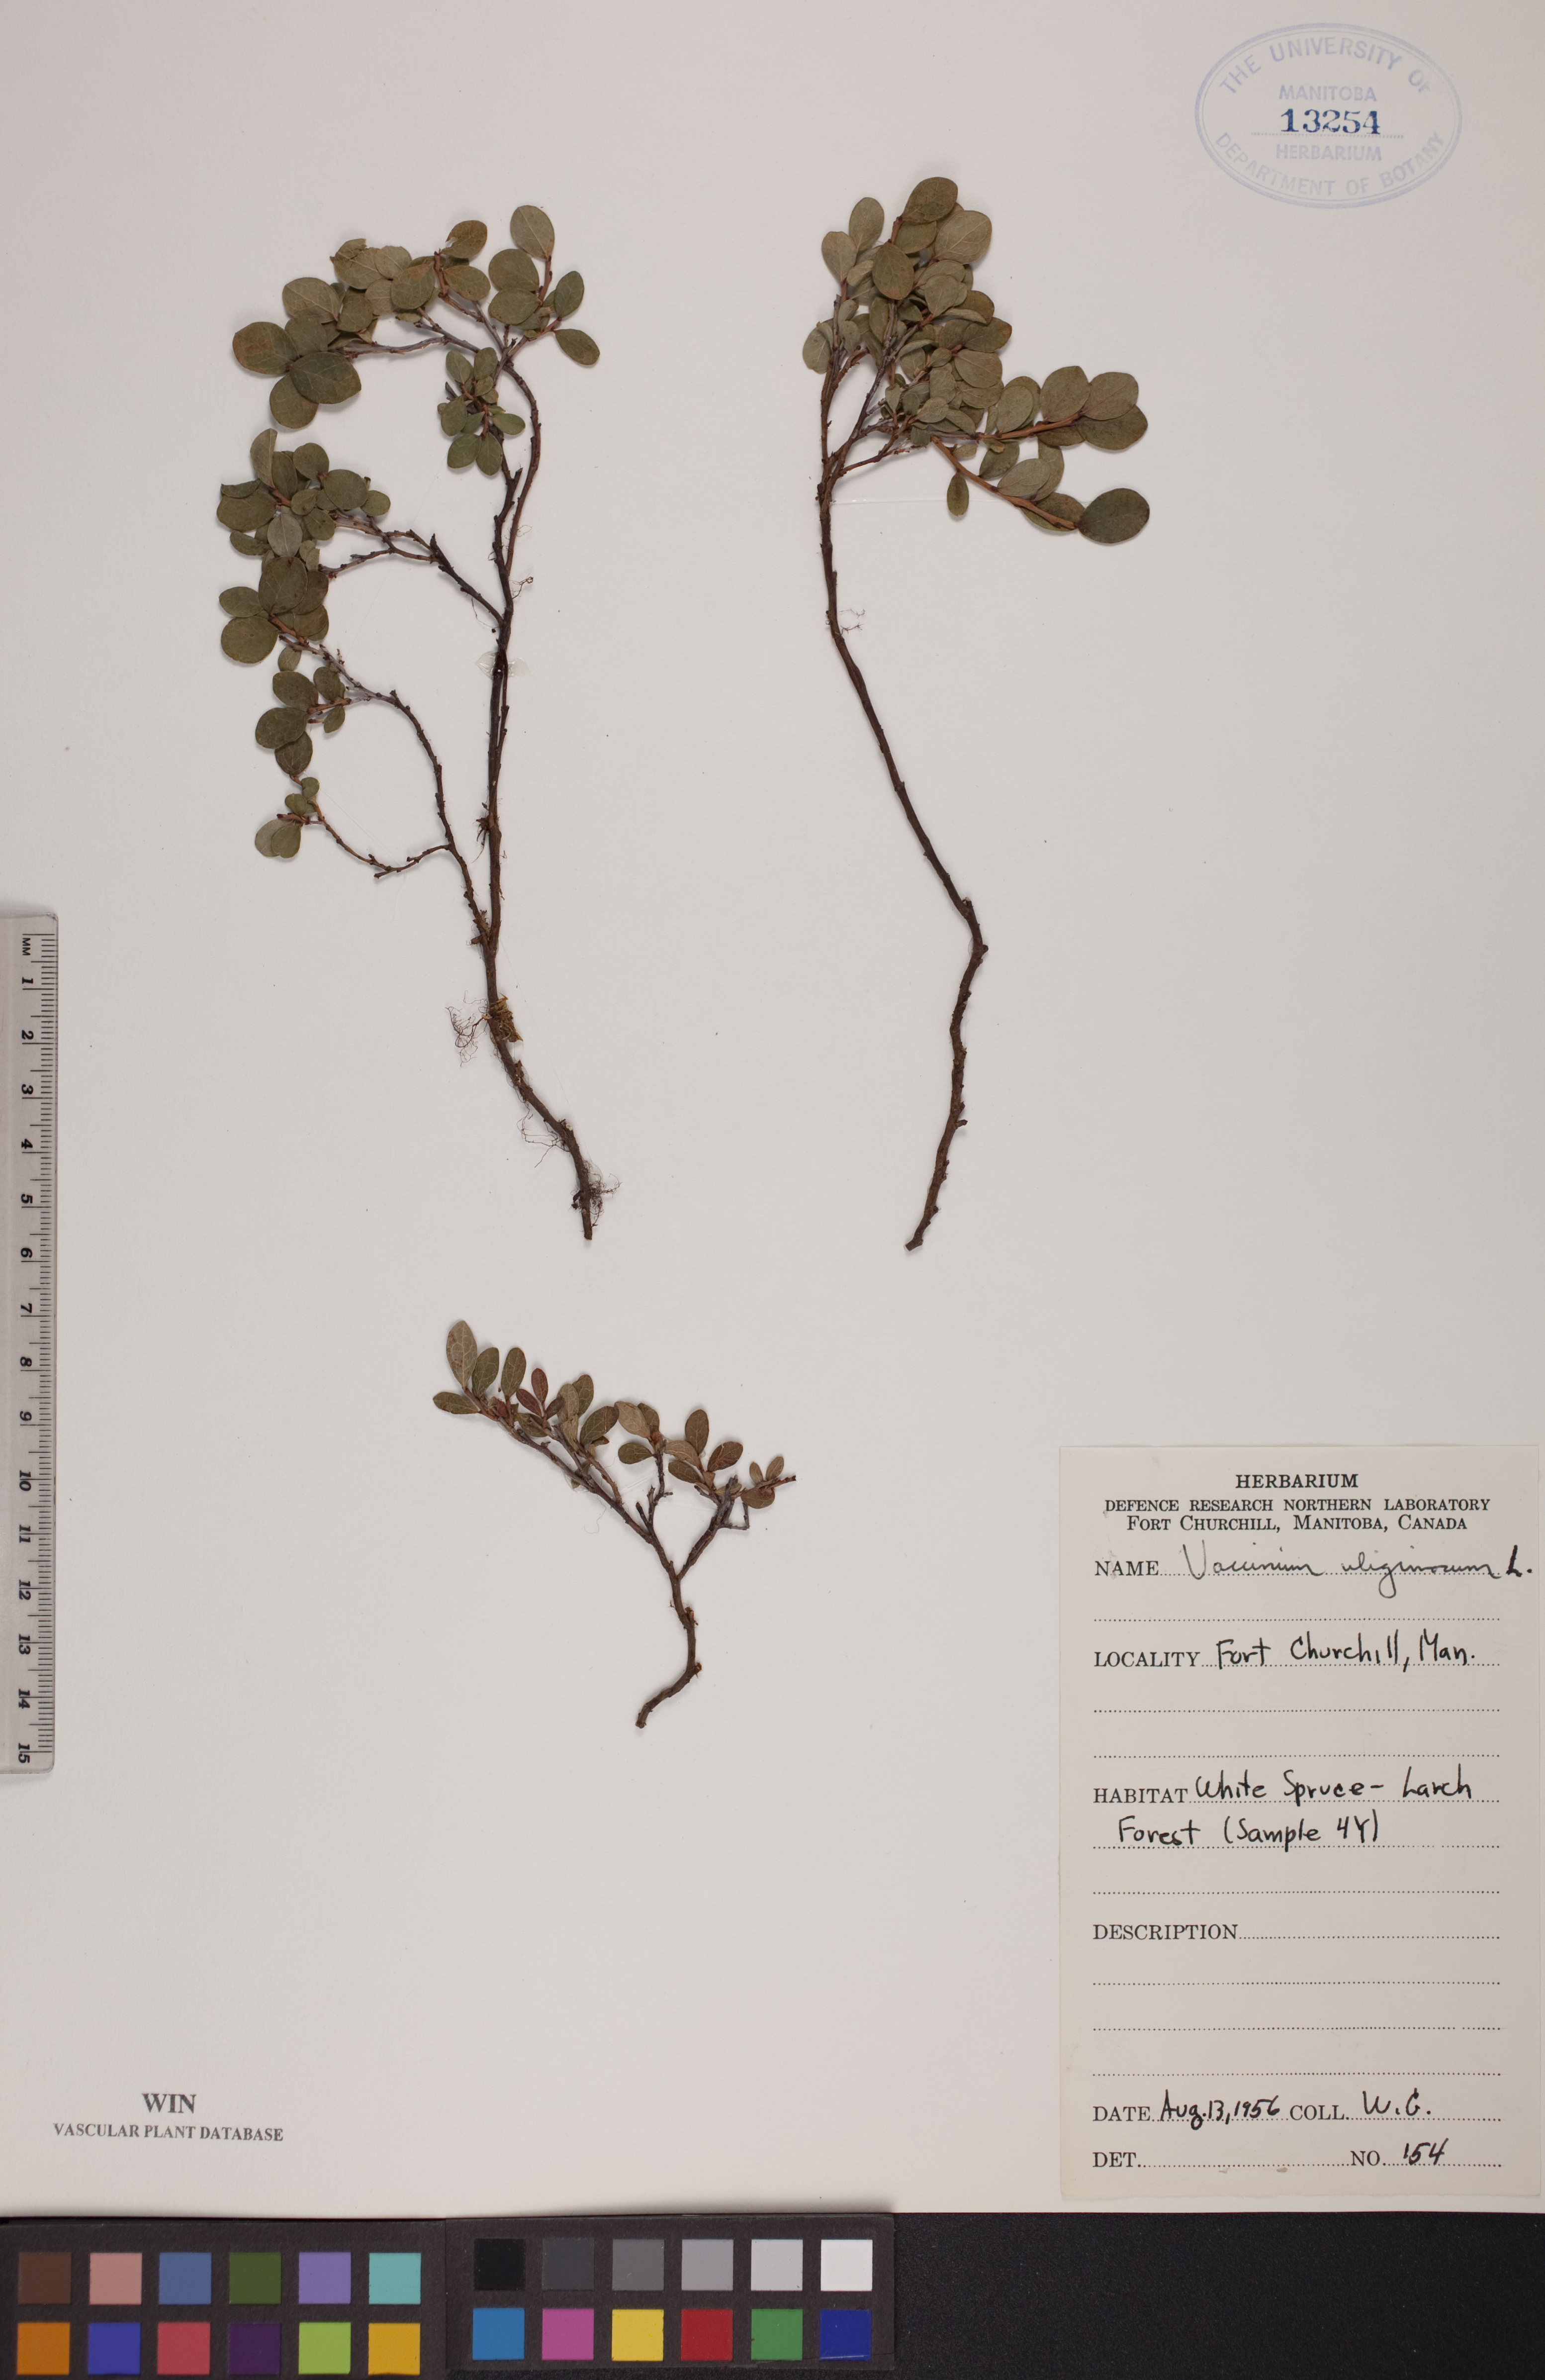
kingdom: Plantae
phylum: Tracheophyta
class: Magnoliopsida
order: Ericales
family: Ericaceae
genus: Vaccinium
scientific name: Vaccinium uliginosum
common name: Bog bilberry
